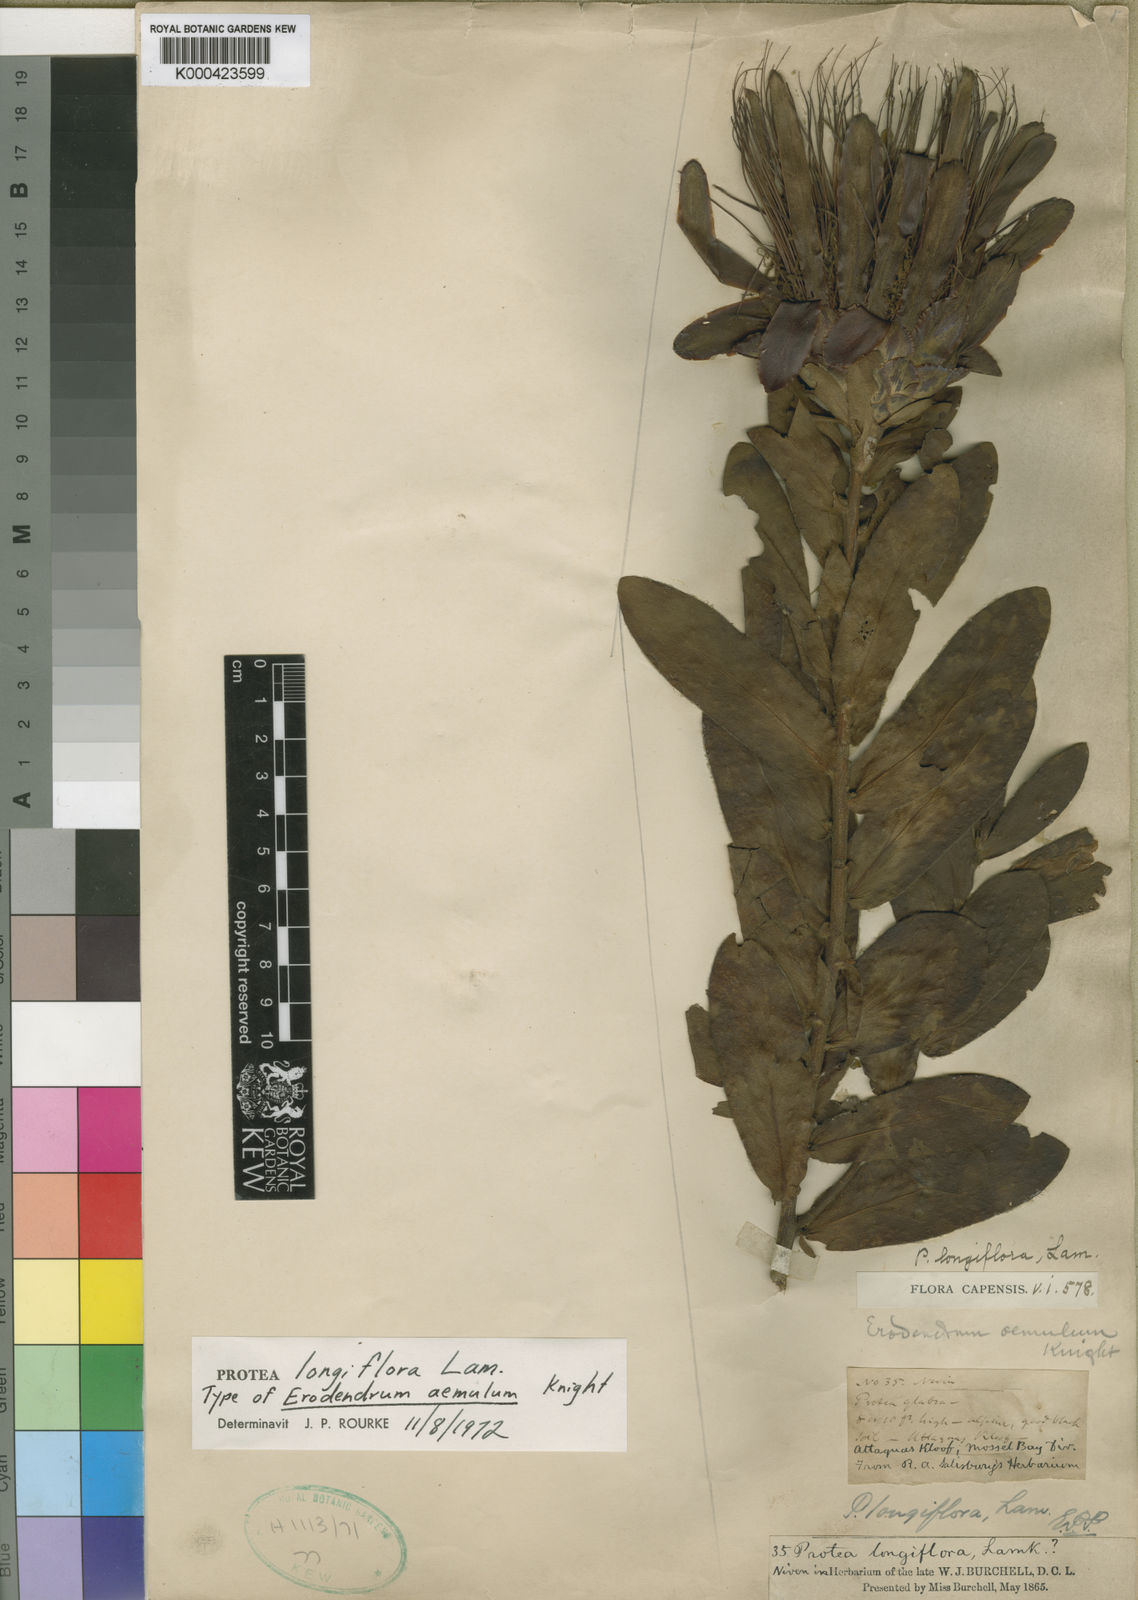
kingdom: Plantae
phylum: Tracheophyta
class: Magnoliopsida
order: Proteales
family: Proteaceae
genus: Protea
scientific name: Protea aurea
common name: Shuttlecock sugarbush
